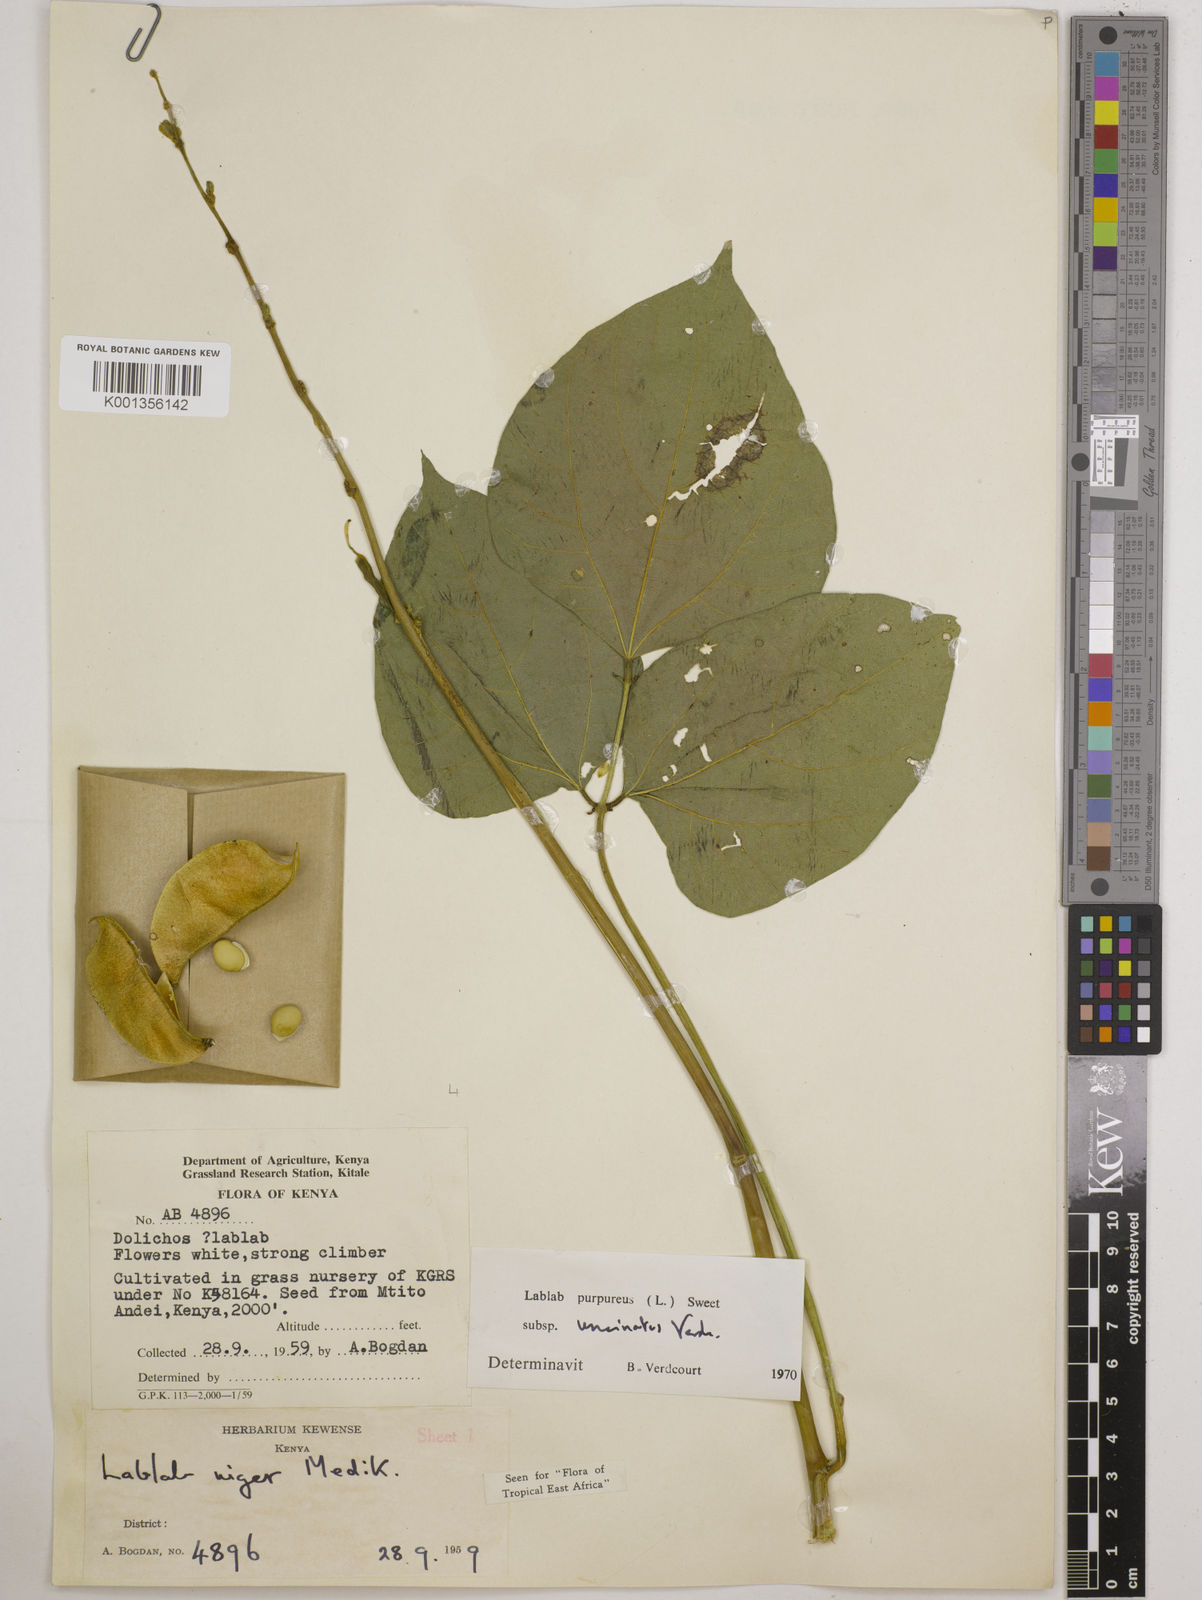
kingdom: Plantae
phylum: Tracheophyta
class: Magnoliopsida
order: Fabales
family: Fabaceae
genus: Lablab
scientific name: Lablab purpureus
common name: Lablab-bean
